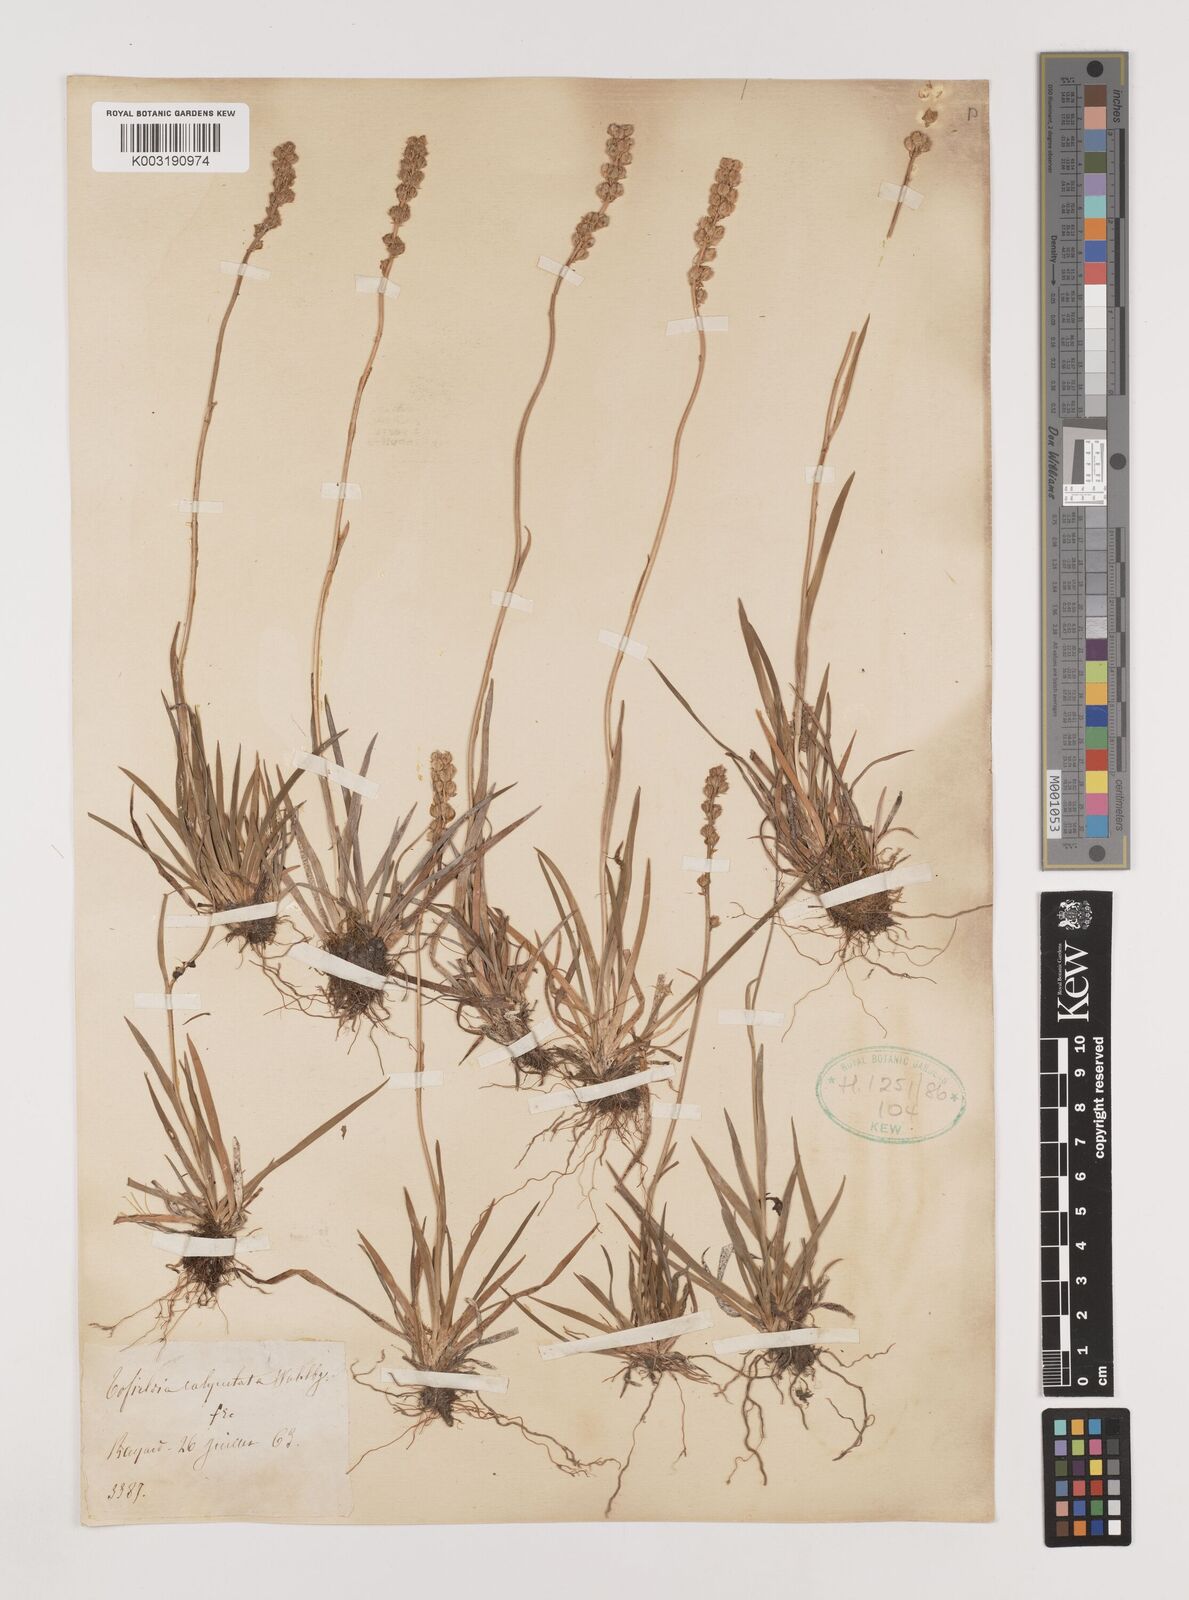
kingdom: Plantae
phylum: Tracheophyta
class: Liliopsida
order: Alismatales
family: Tofieldiaceae
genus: Tofieldia
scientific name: Tofieldia calyculata
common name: German-asphodel
